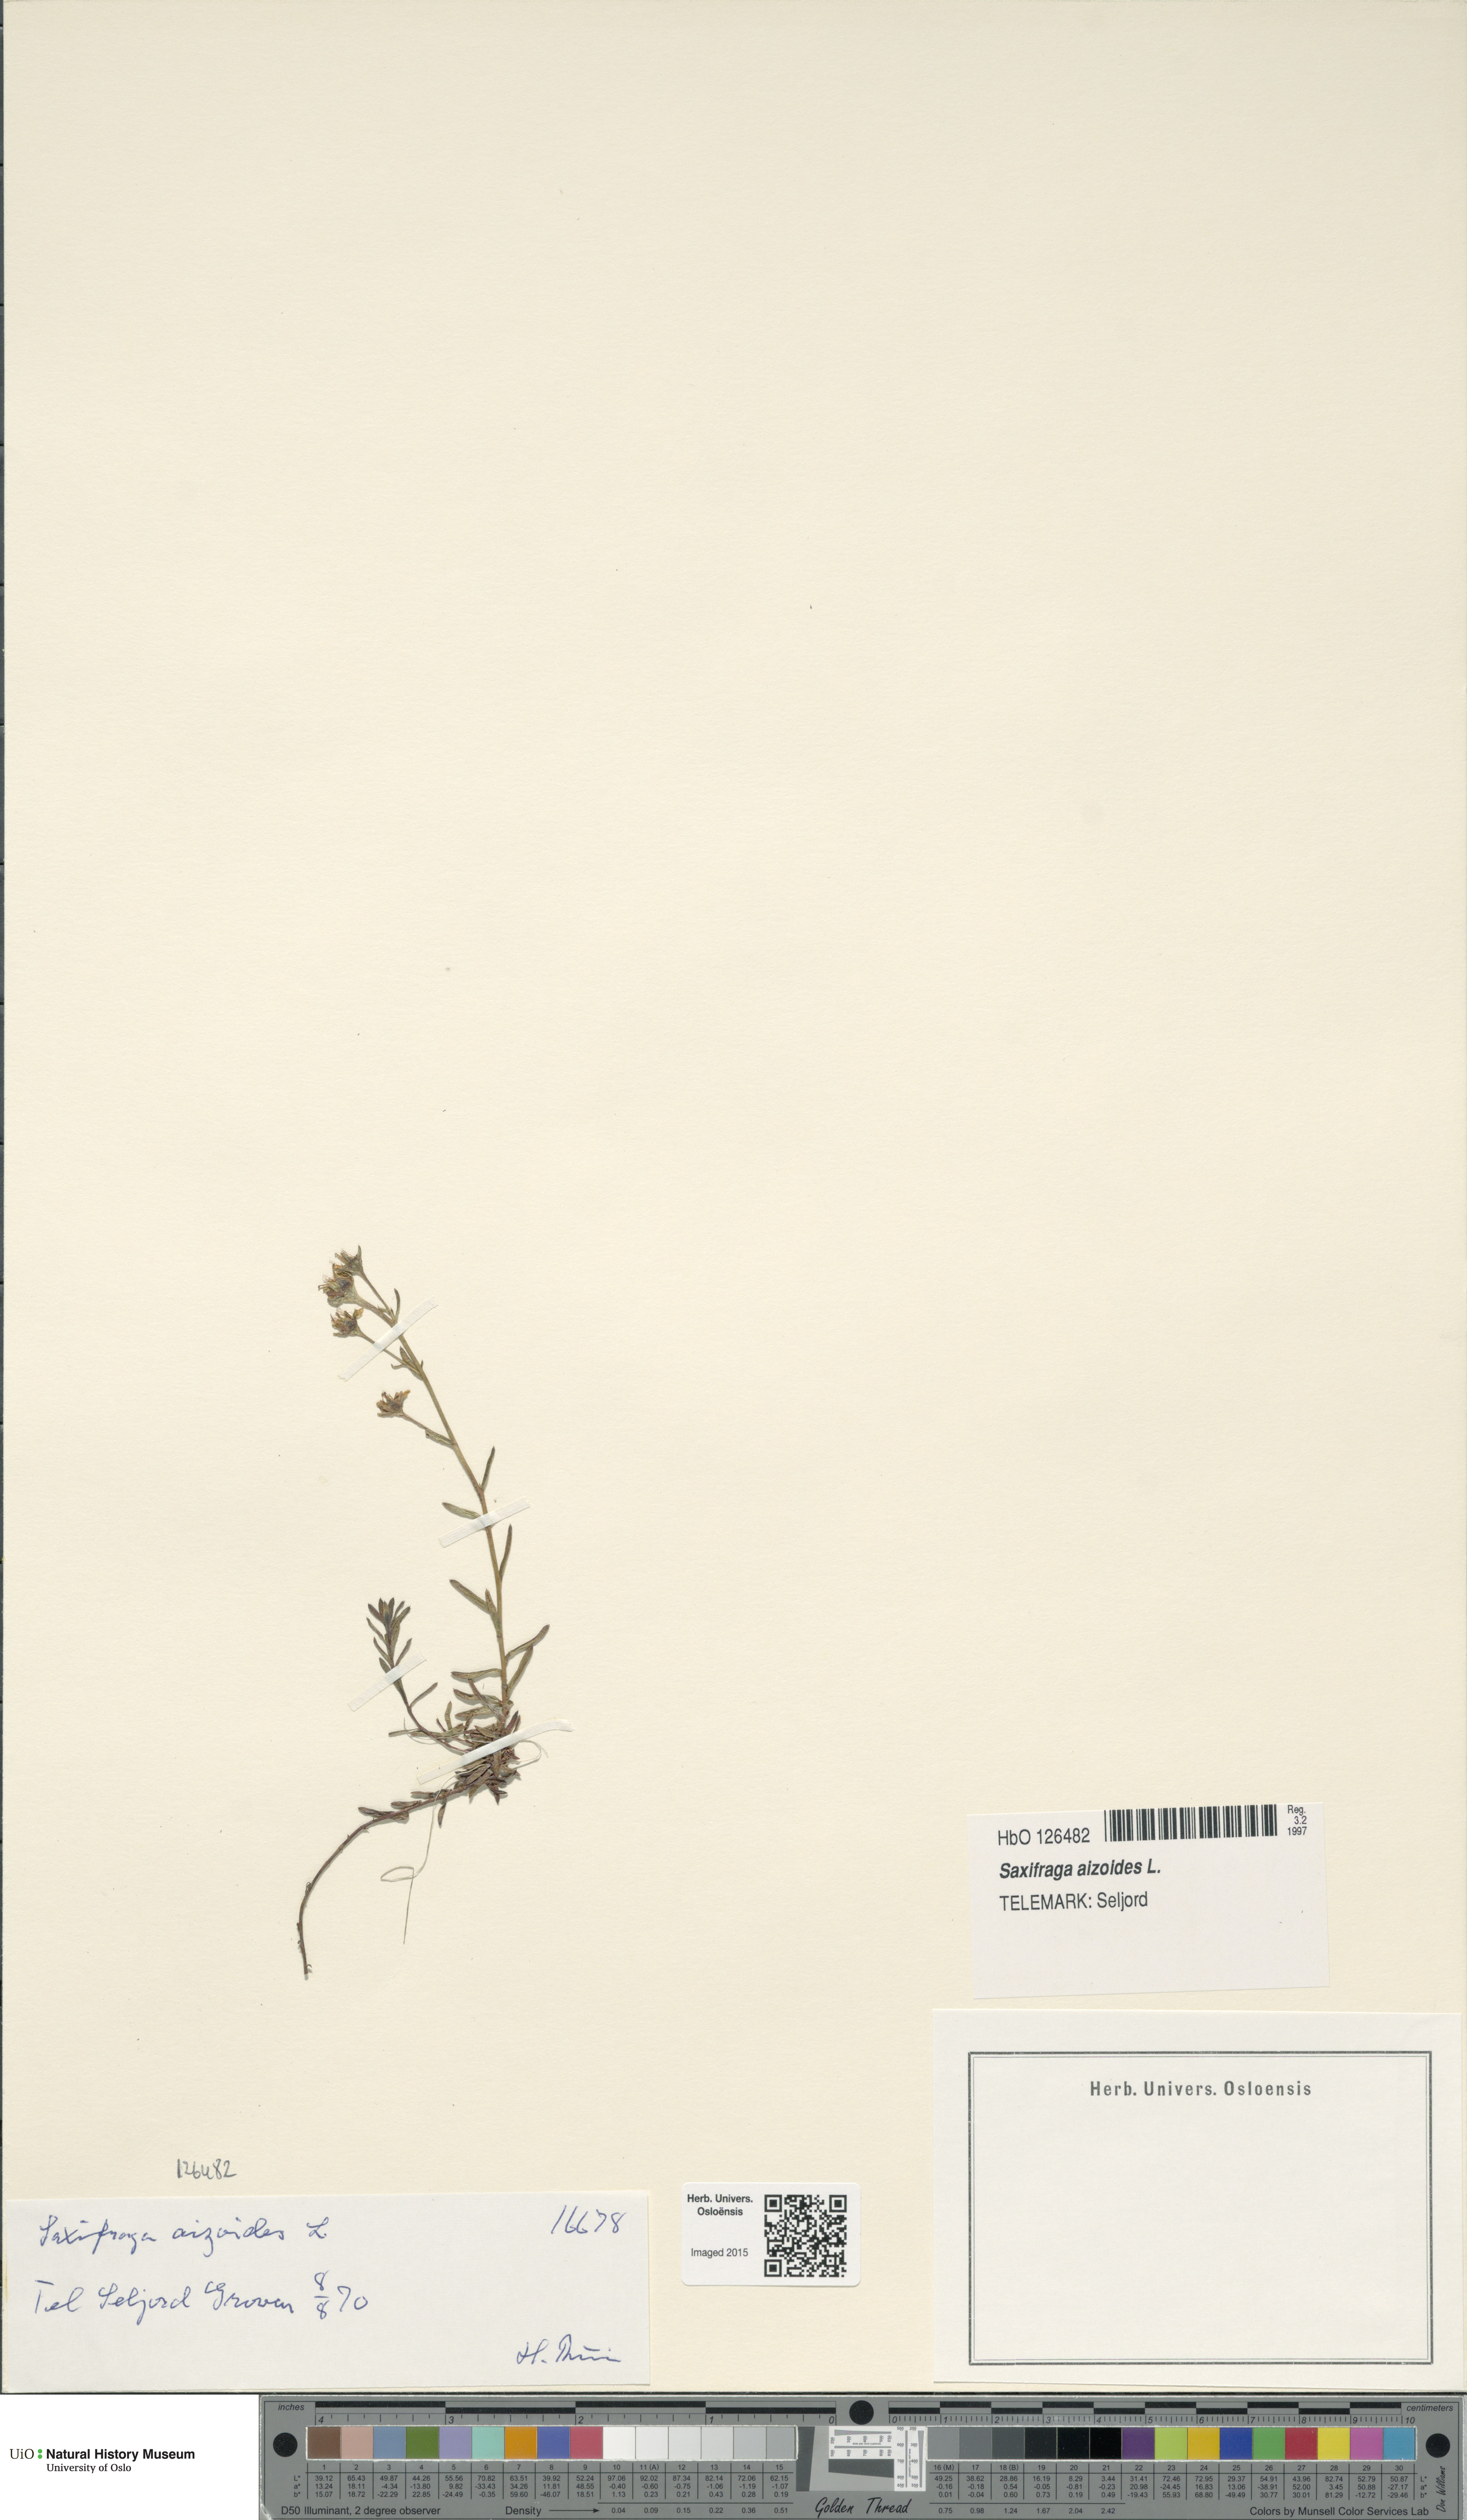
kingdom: Plantae
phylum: Tracheophyta
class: Magnoliopsida
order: Saxifragales
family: Saxifragaceae
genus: Saxifraga
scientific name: Saxifraga aizoides
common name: Yellow mountain saxifrage
